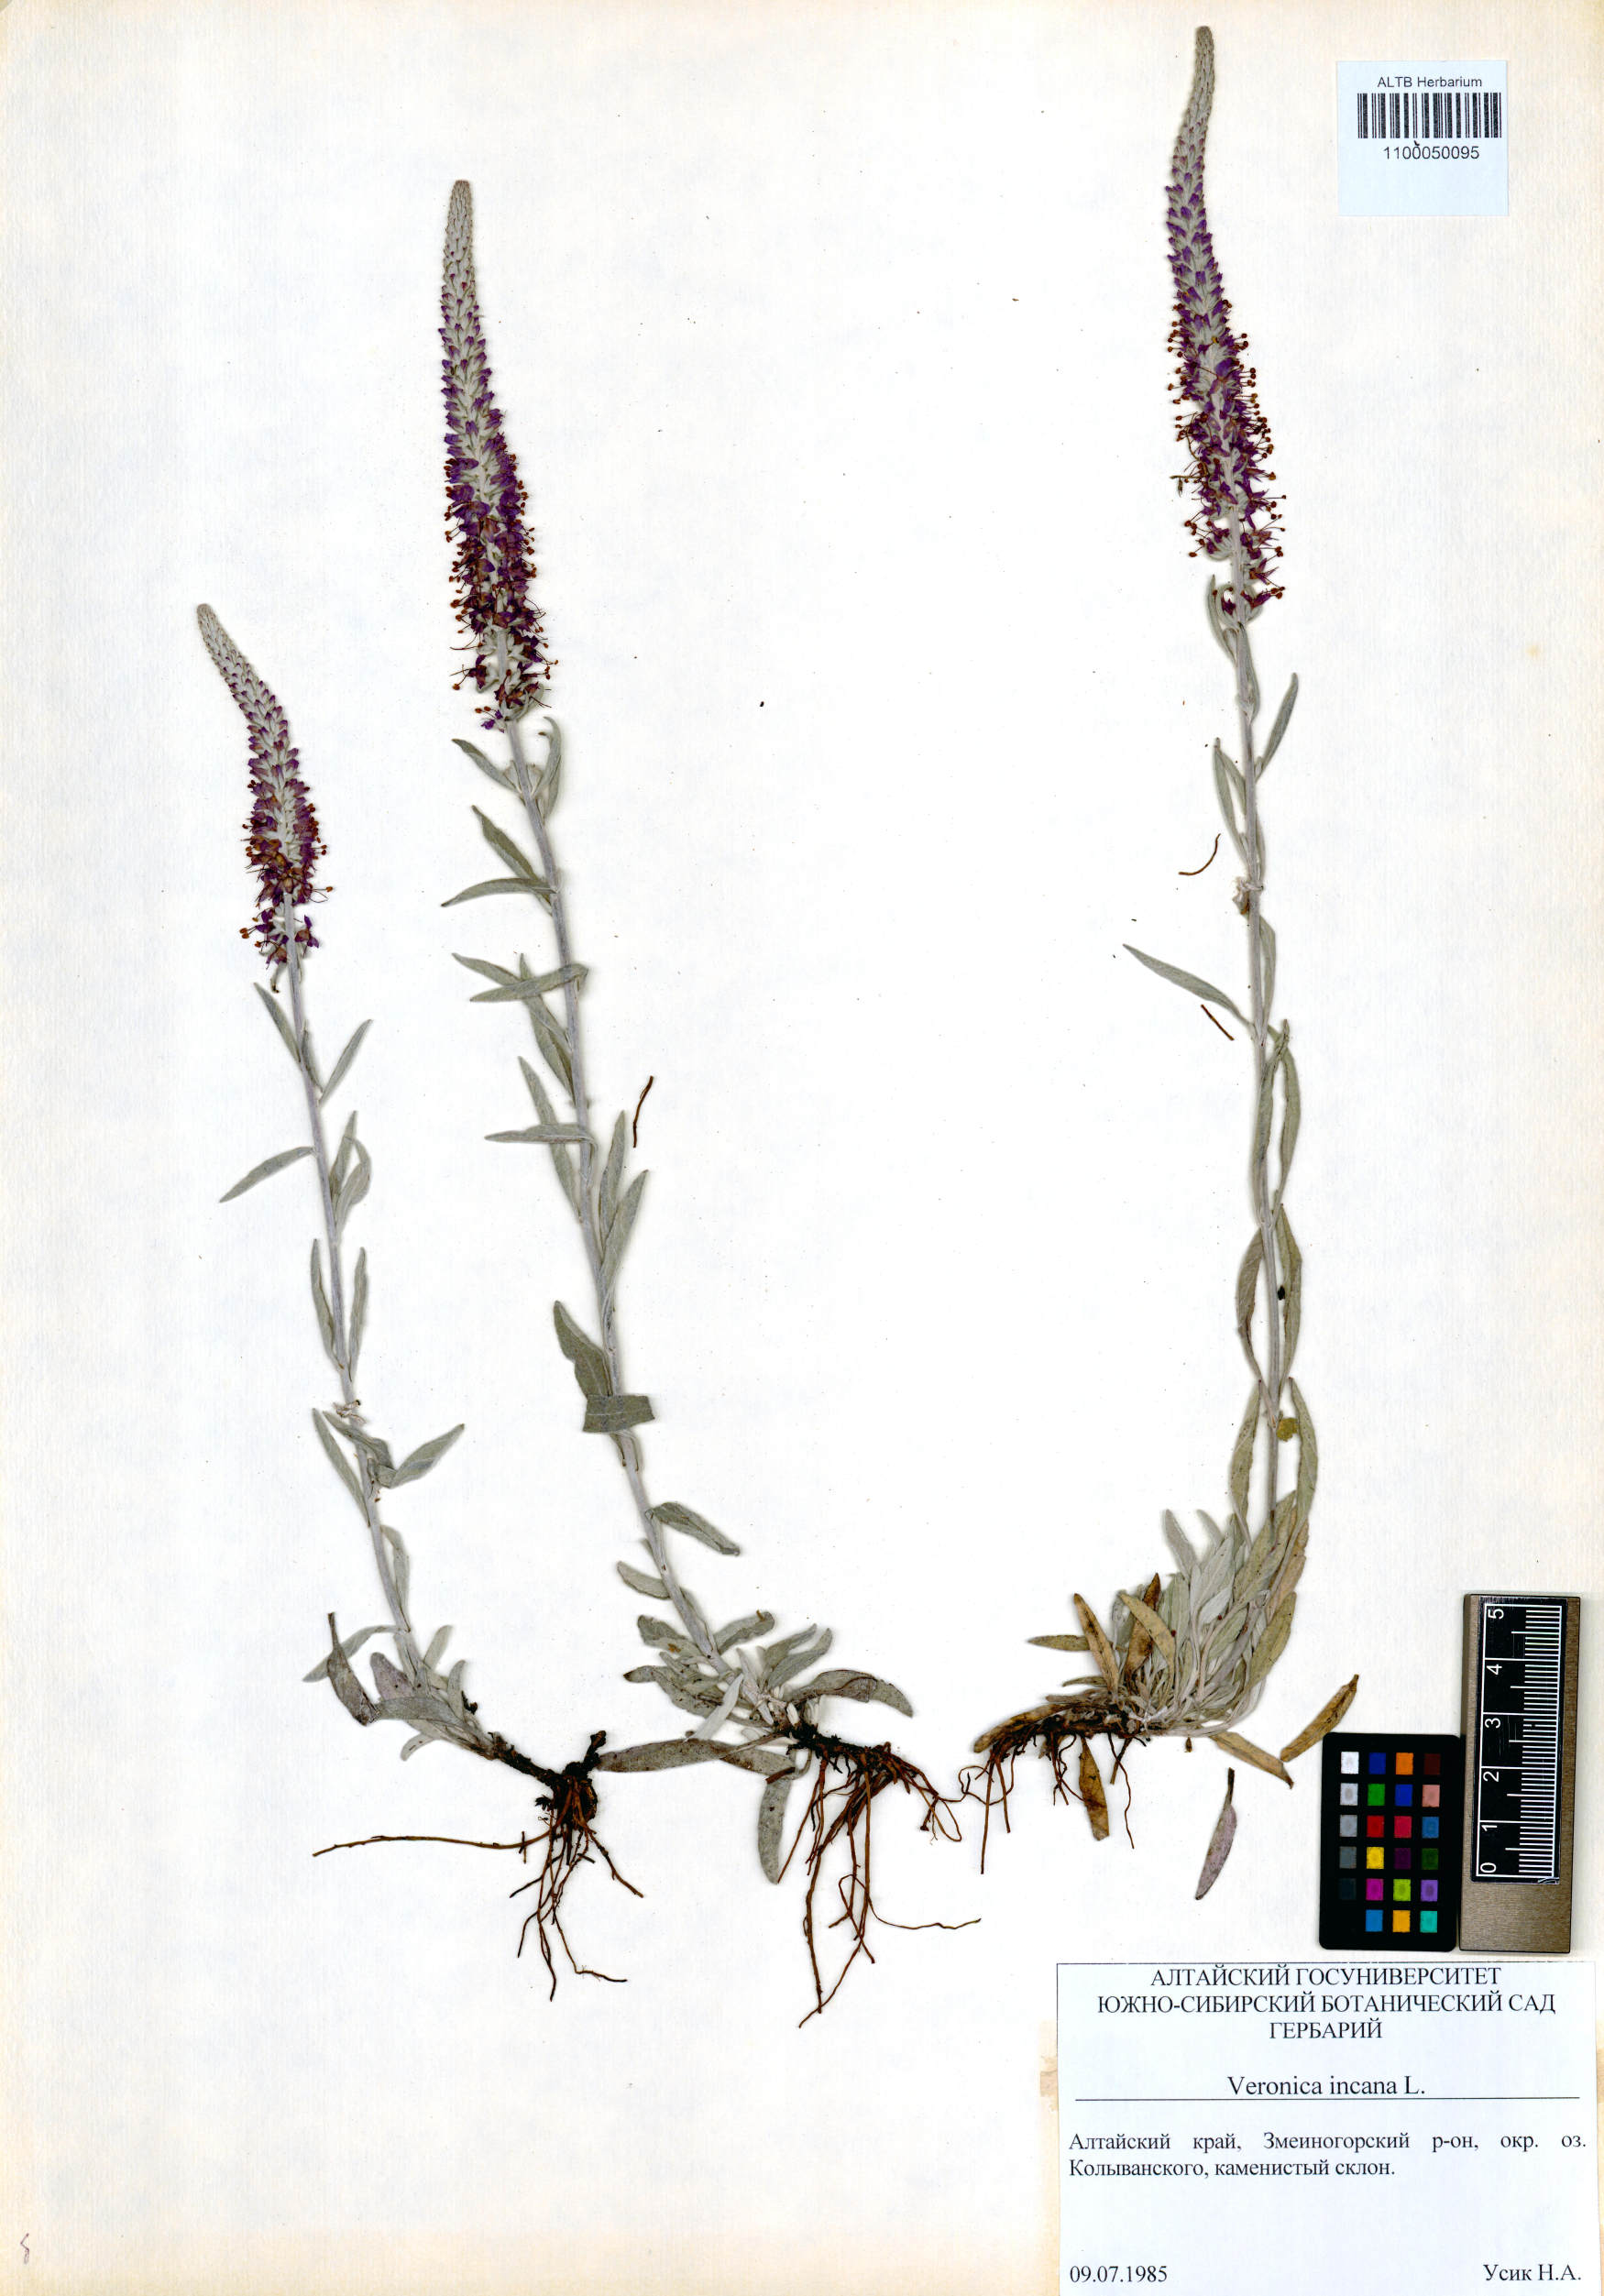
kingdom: Plantae
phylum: Tracheophyta
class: Magnoliopsida
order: Lamiales
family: Plantaginaceae
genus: Veronica
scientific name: Veronica incana
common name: Silver speedwell
